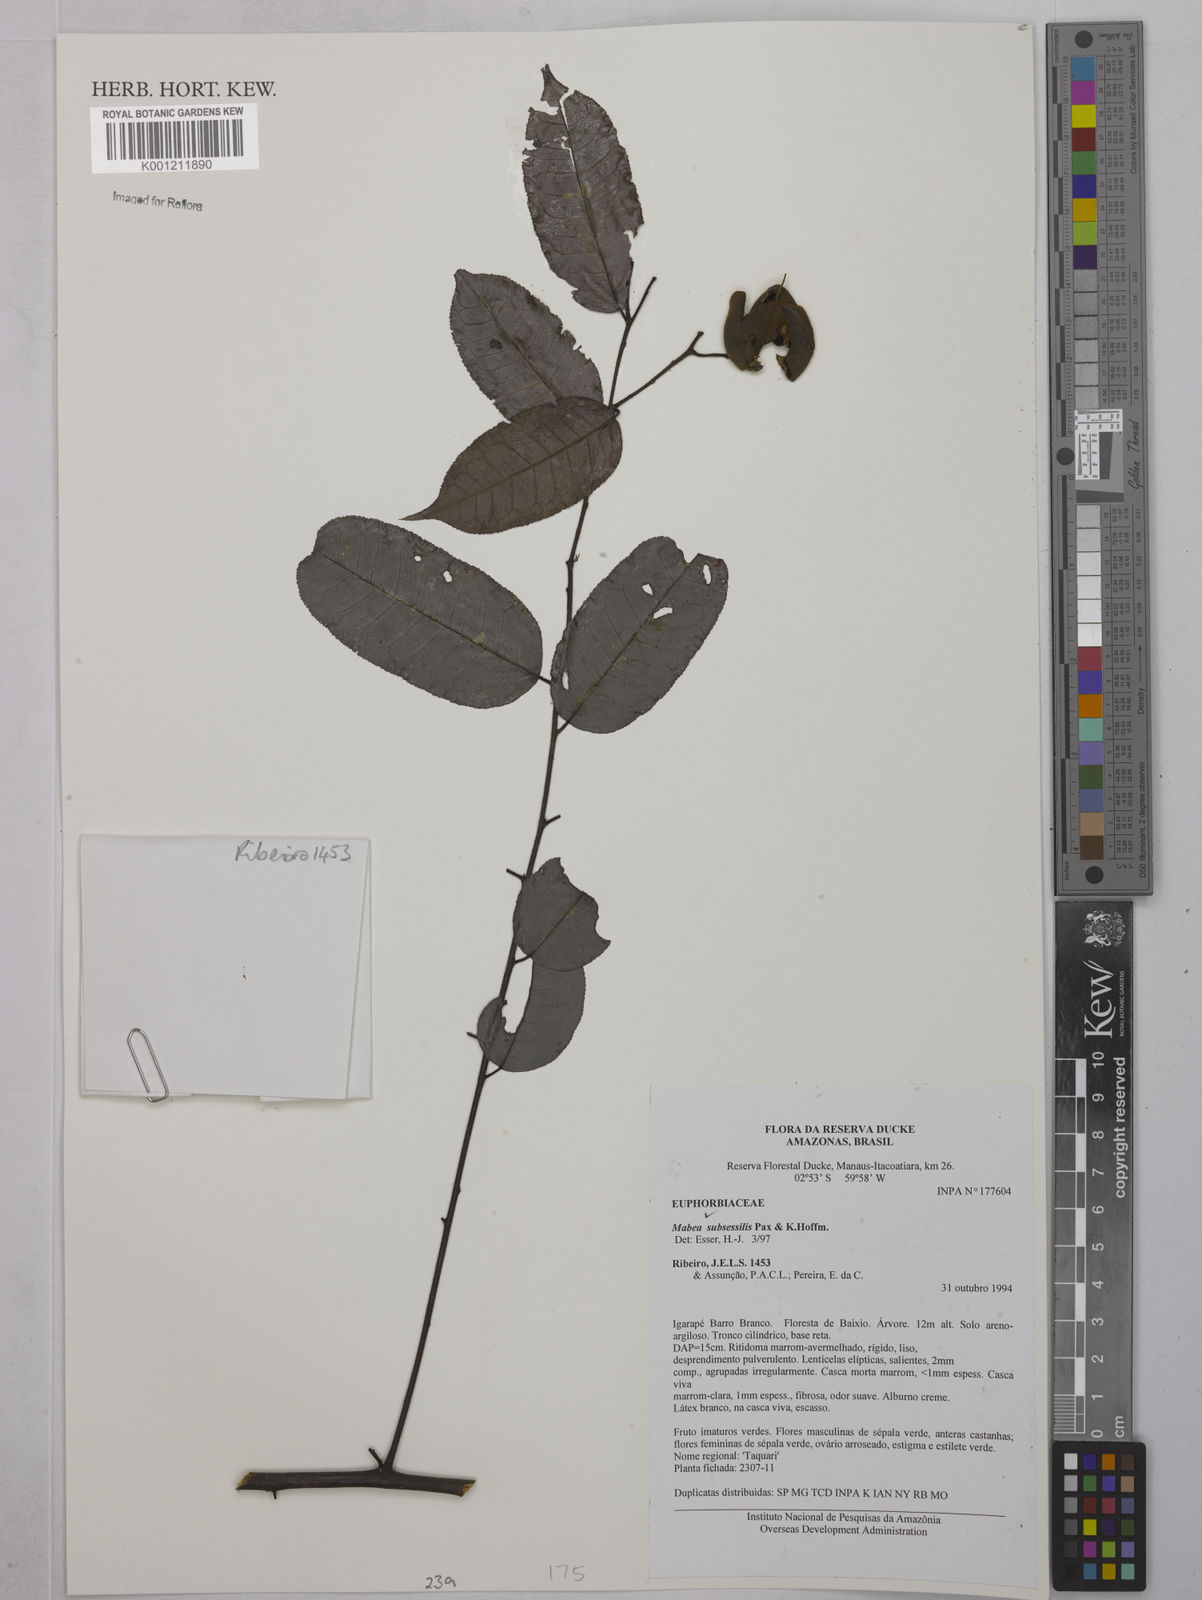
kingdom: Plantae
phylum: Tracheophyta
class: Magnoliopsida
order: Malpighiales
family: Euphorbiaceae
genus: Mabea
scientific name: Mabea subsessilis
